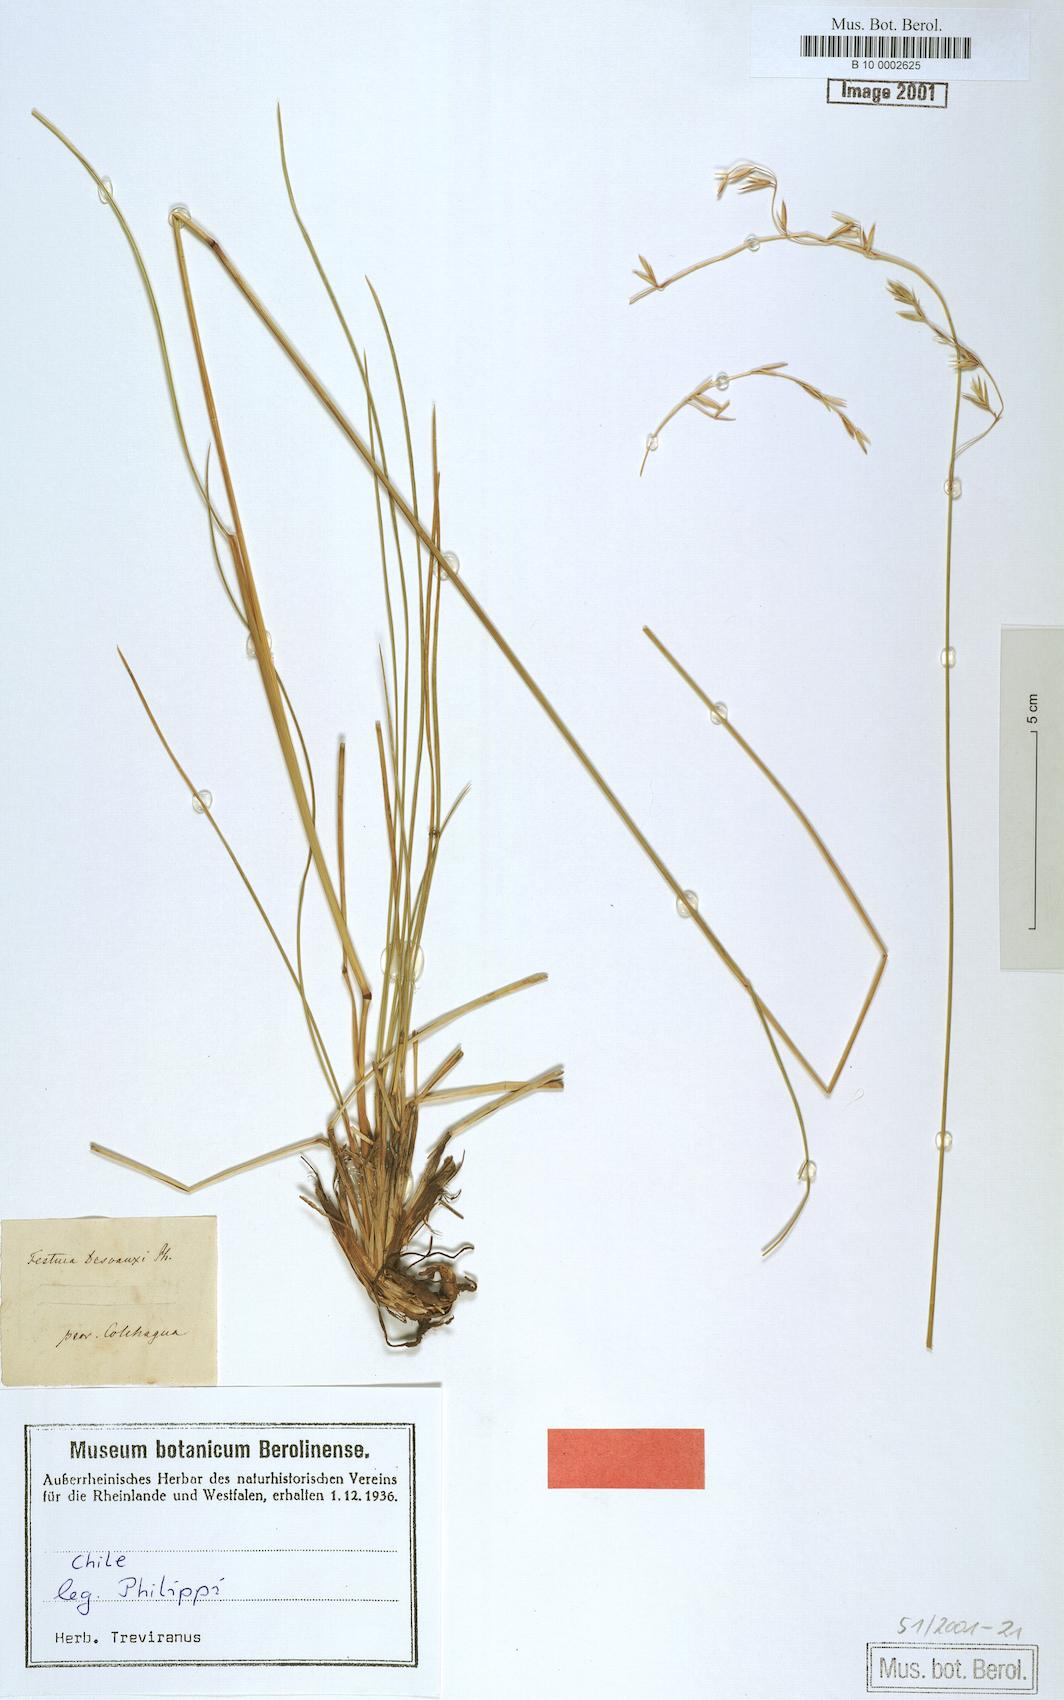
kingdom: Plantae
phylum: Tracheophyta
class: Liliopsida
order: Poales
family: Poaceae
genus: Festuca
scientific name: Festuca acanthophylla
